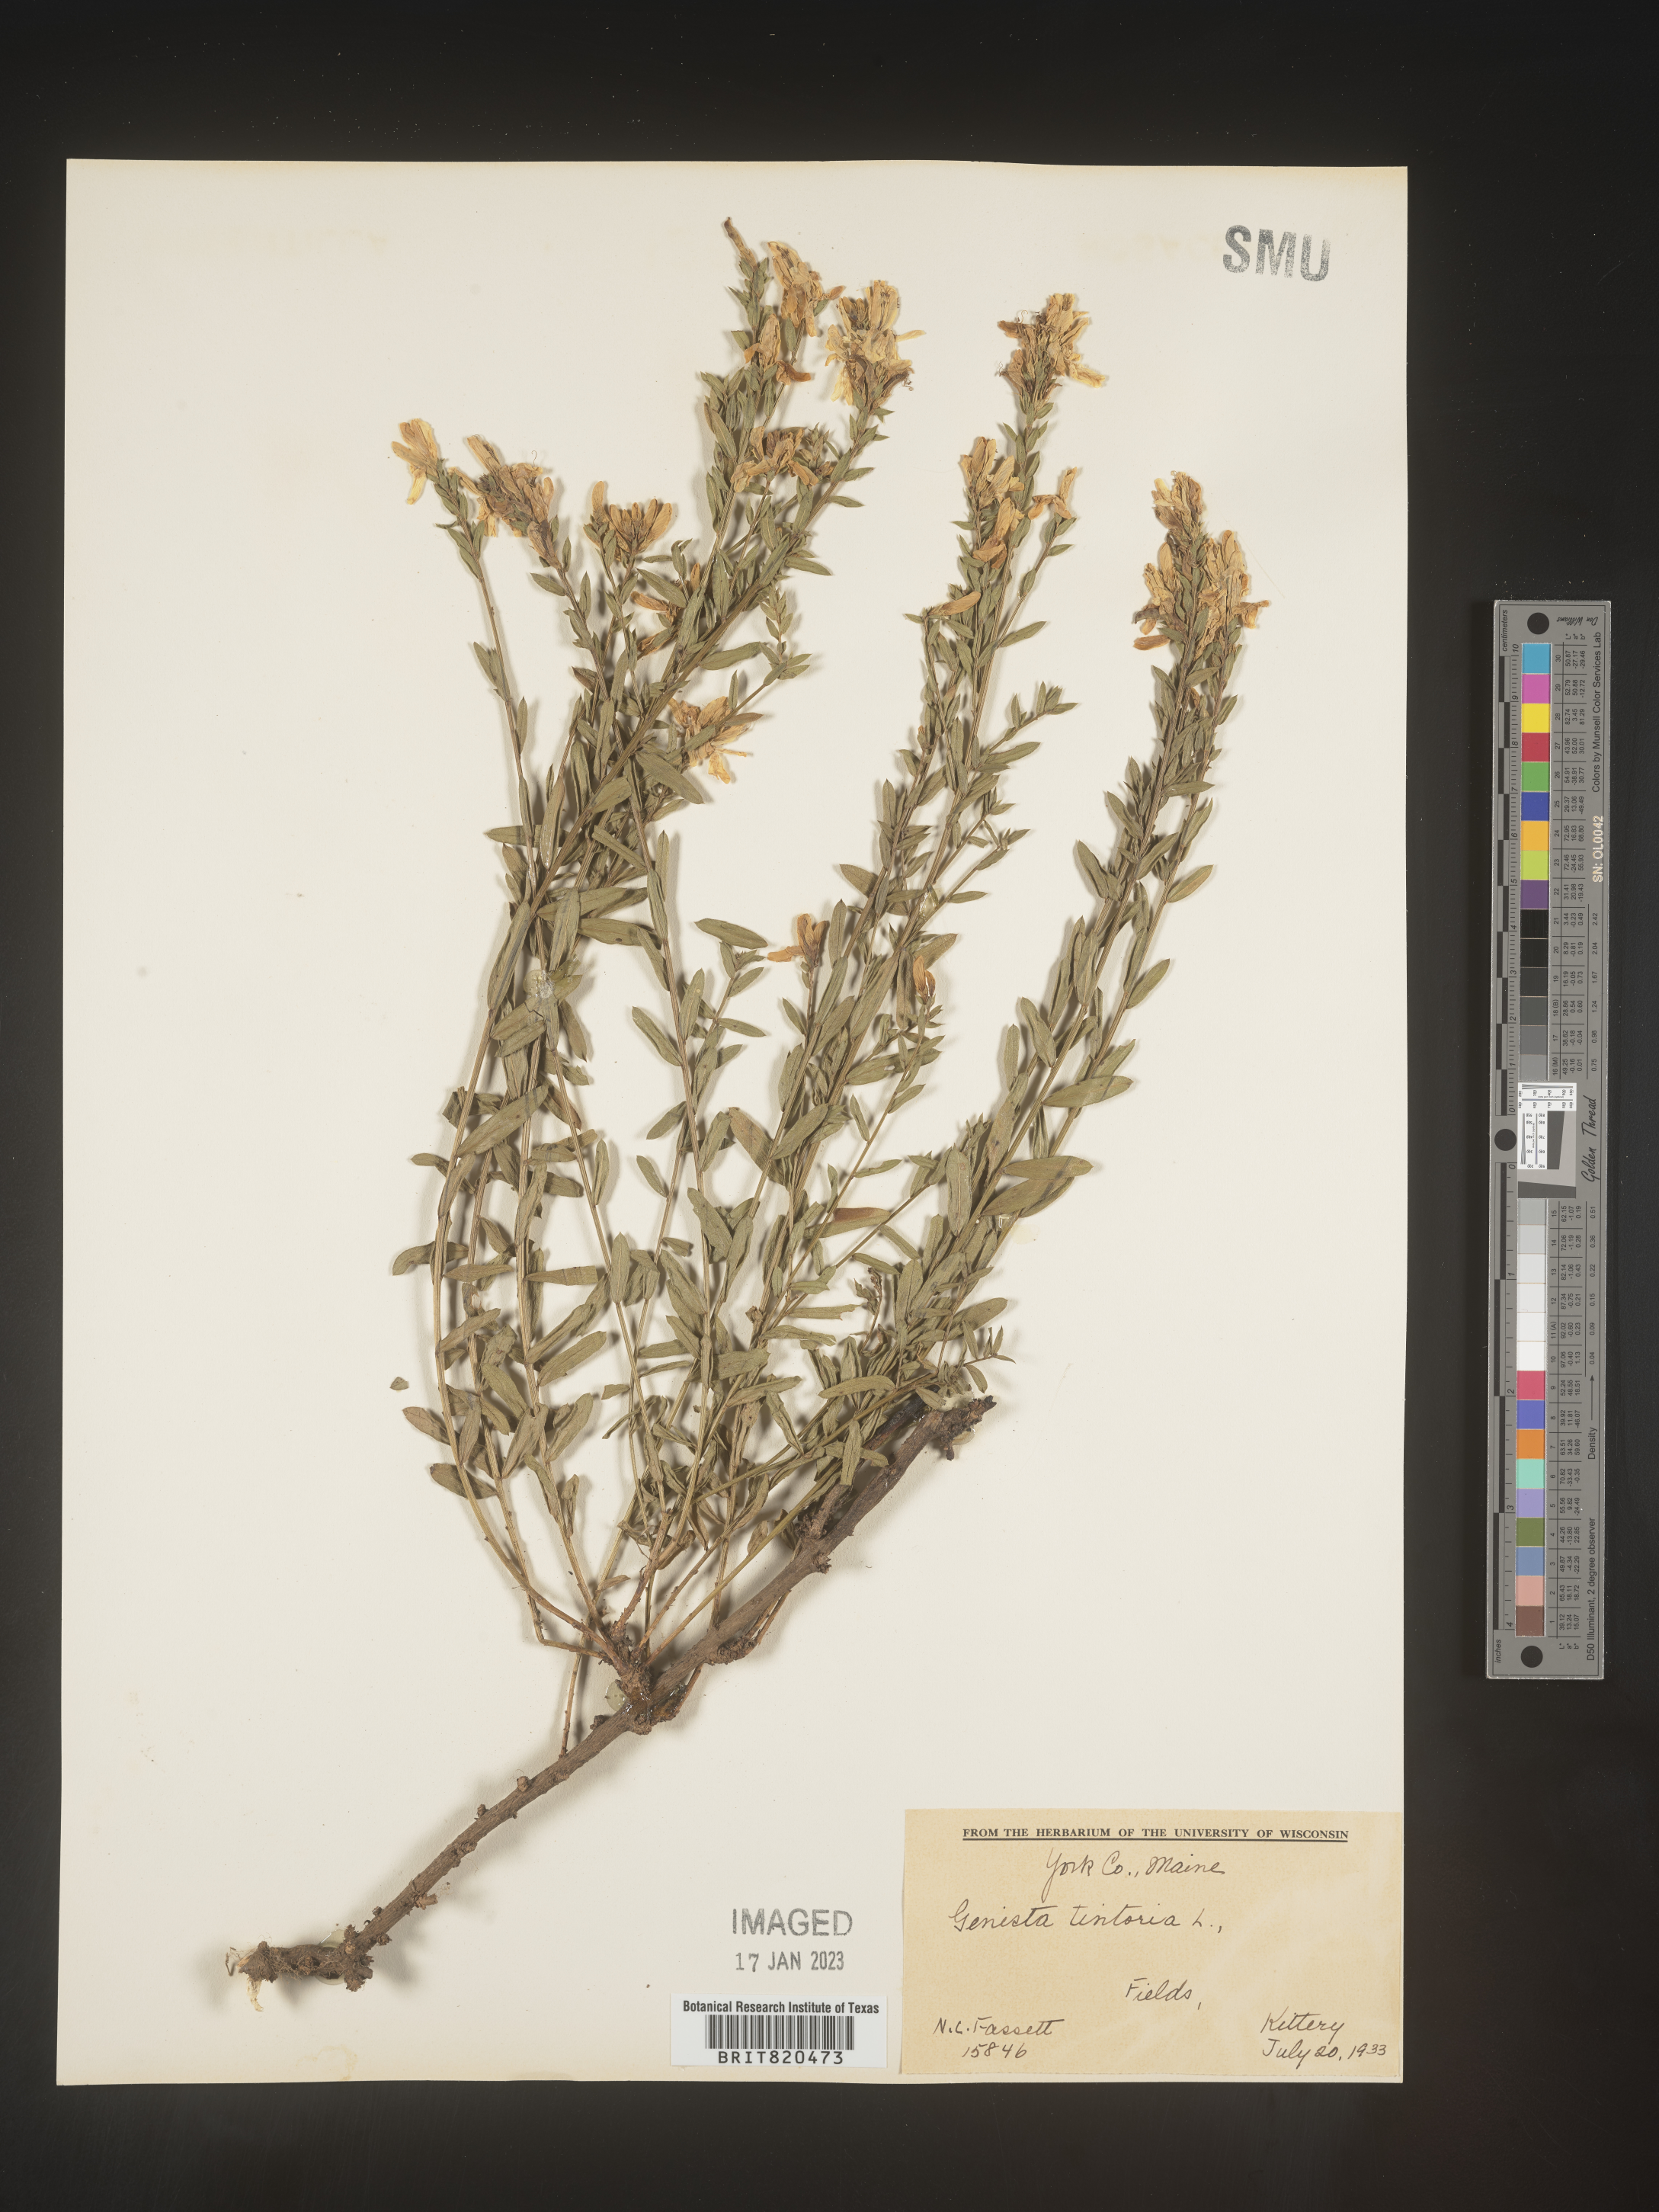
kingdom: Plantae
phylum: Tracheophyta
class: Magnoliopsida
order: Fabales
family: Fabaceae
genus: Genista
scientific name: Genista
